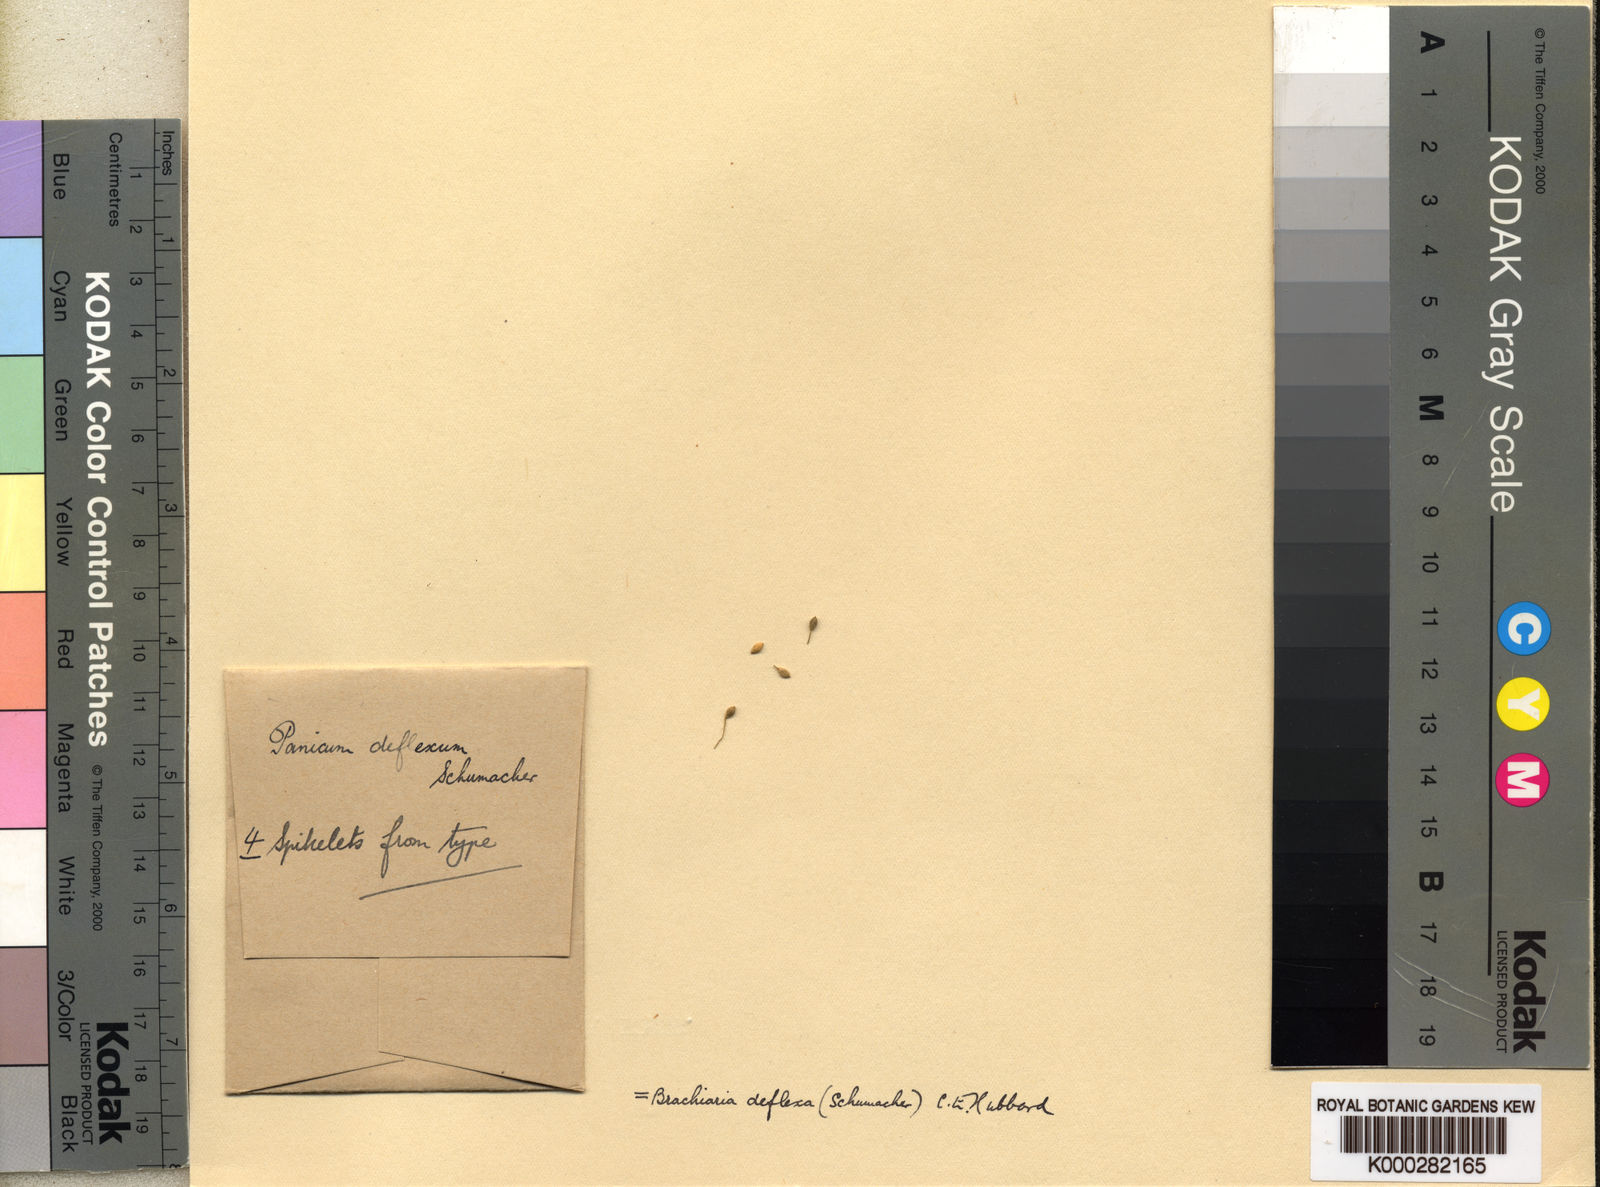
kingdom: Plantae
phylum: Tracheophyta
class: Liliopsida
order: Poales
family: Poaceae
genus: Urochloa
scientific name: Urochloa deflexa
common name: Guinea millet
